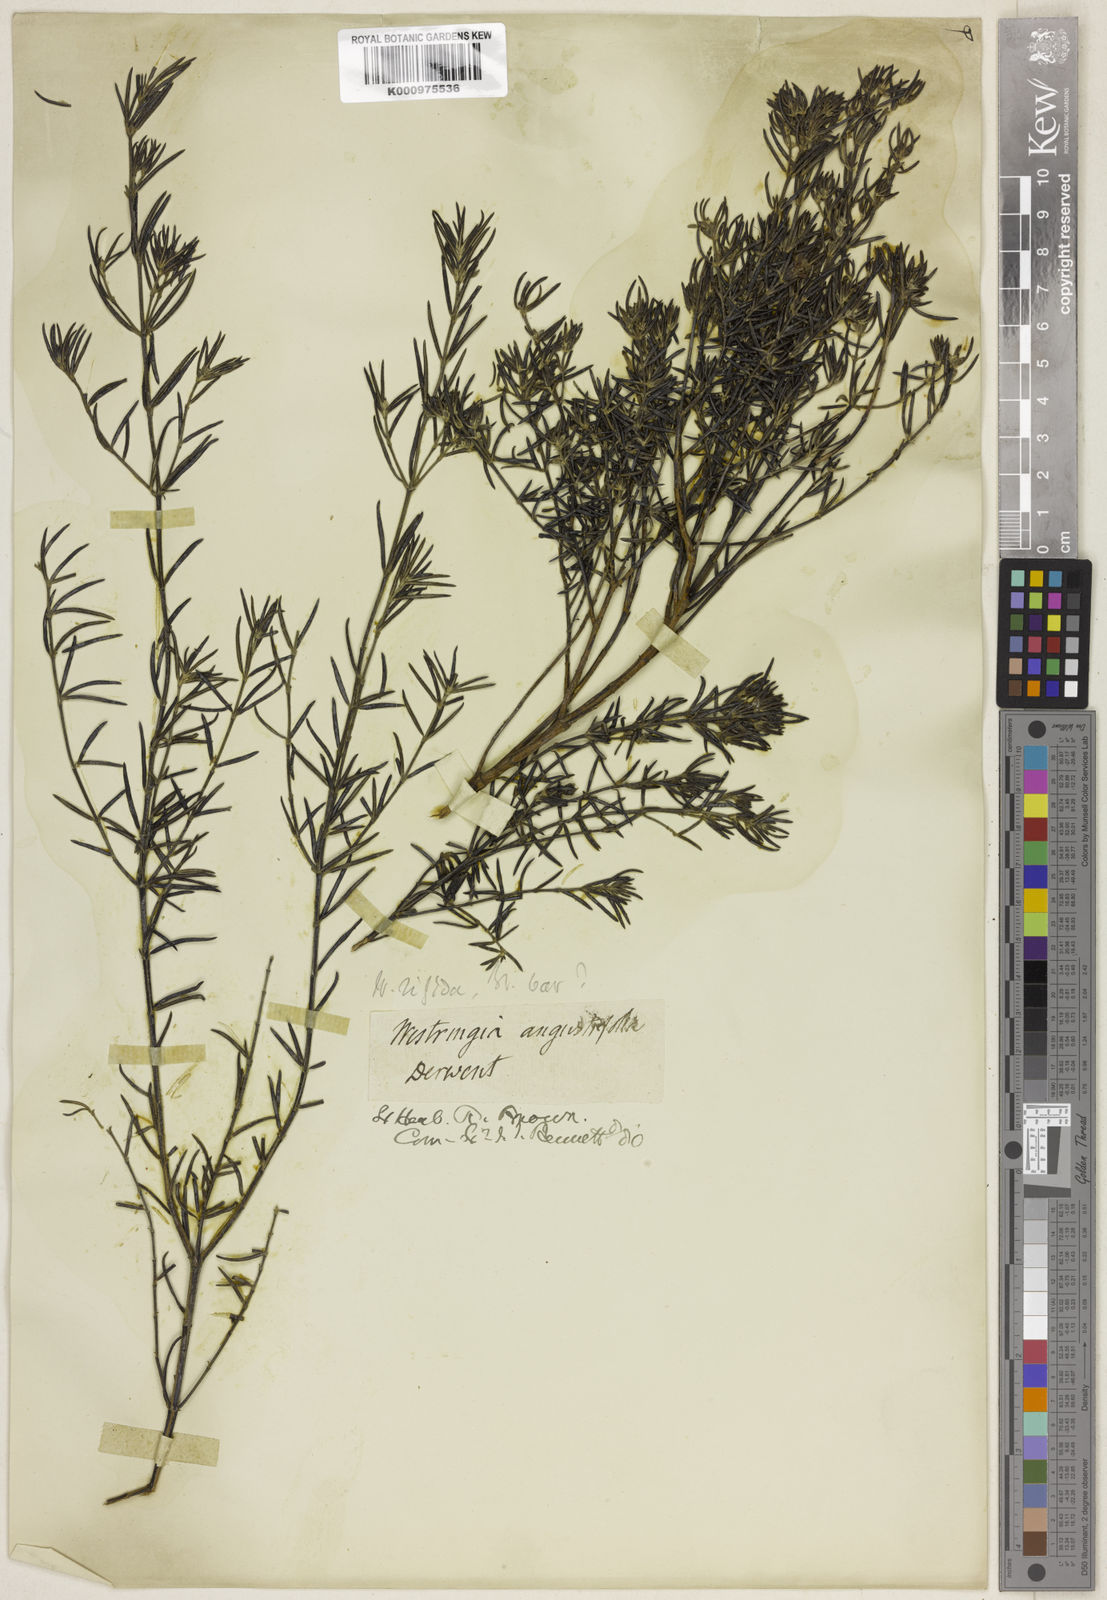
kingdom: Plantae
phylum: Tracheophyta
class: Magnoliopsida
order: Lamiales
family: Lamiaceae
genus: Westringia
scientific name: Westringia angustifolia
